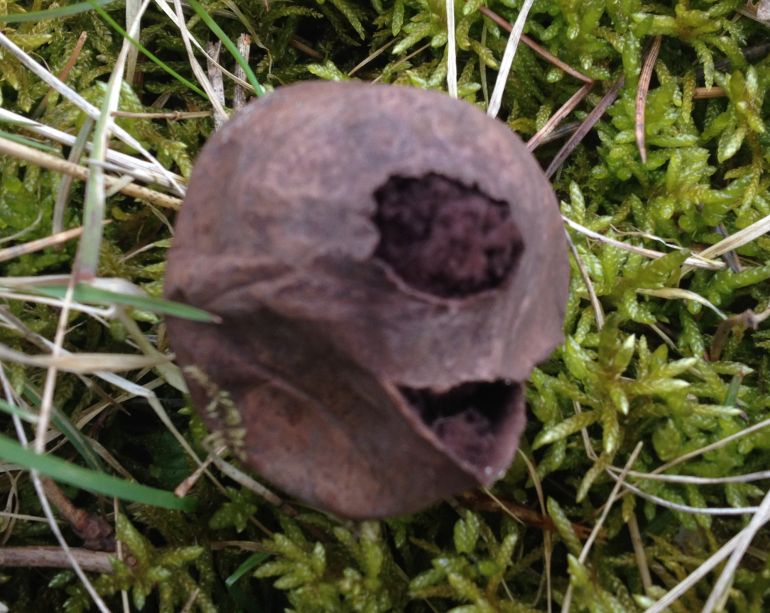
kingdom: Fungi
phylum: Basidiomycota
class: Agaricomycetes
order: Agaricales
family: Lycoperdaceae
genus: Bovista
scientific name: Bovista nigrescens
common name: sortagtig bovist
